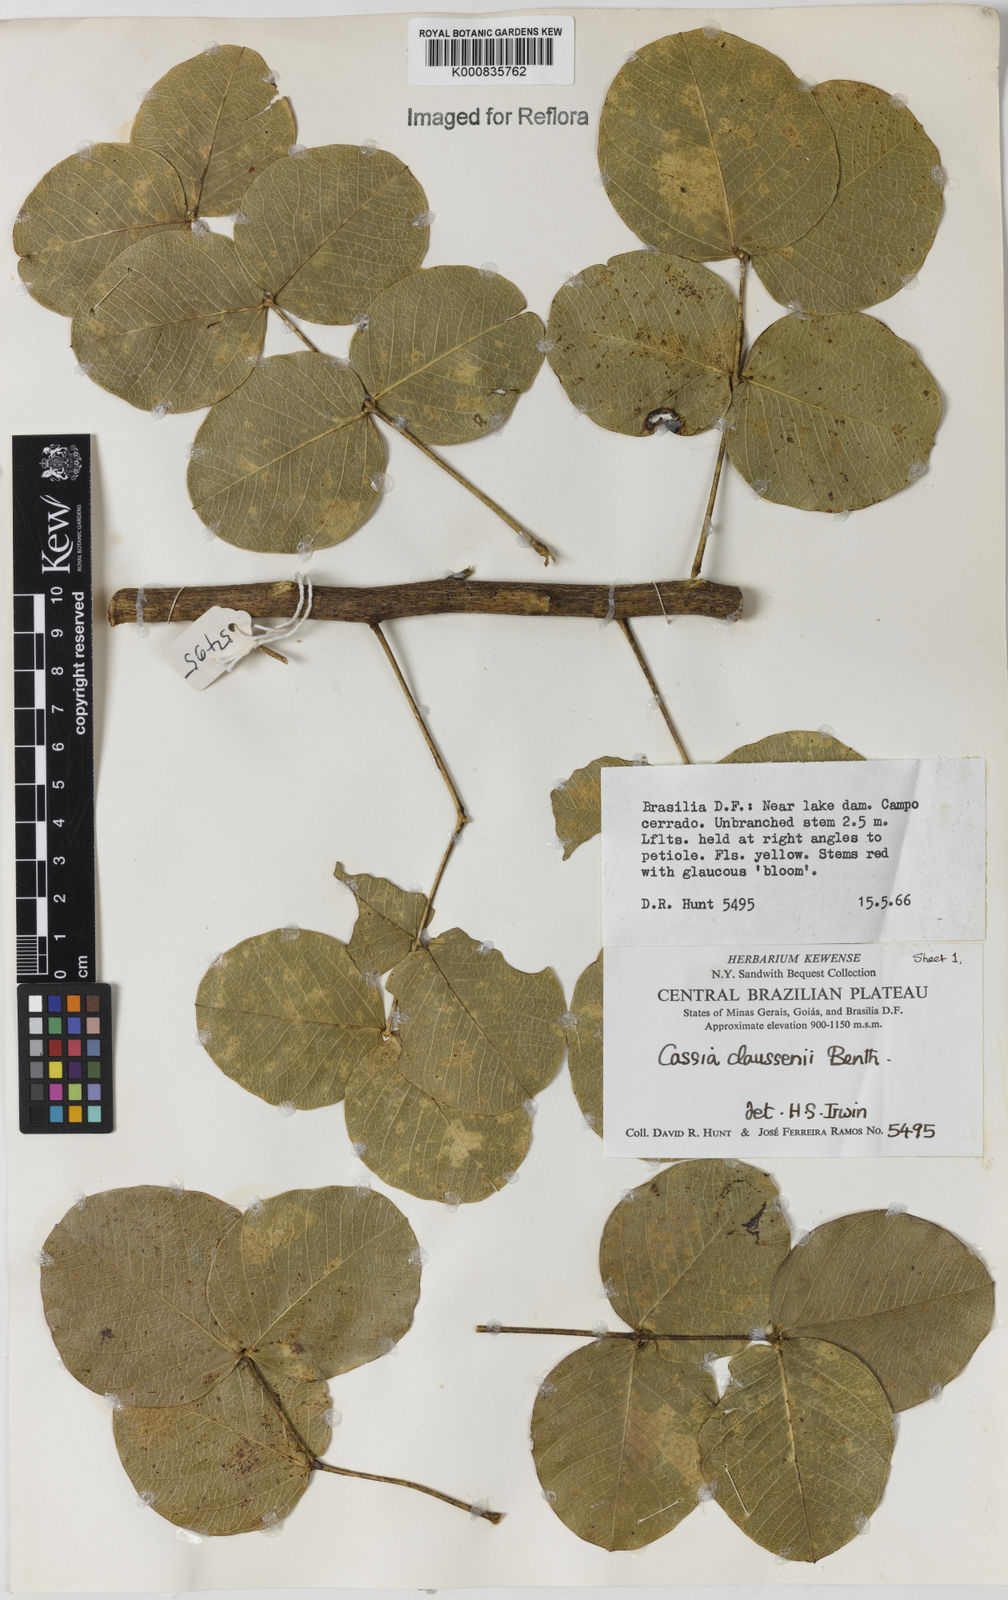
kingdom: Plantae
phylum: Tracheophyta
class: Magnoliopsida
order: Fabales
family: Fabaceae
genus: Chamaecrista
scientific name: Chamaecrista claussenii
